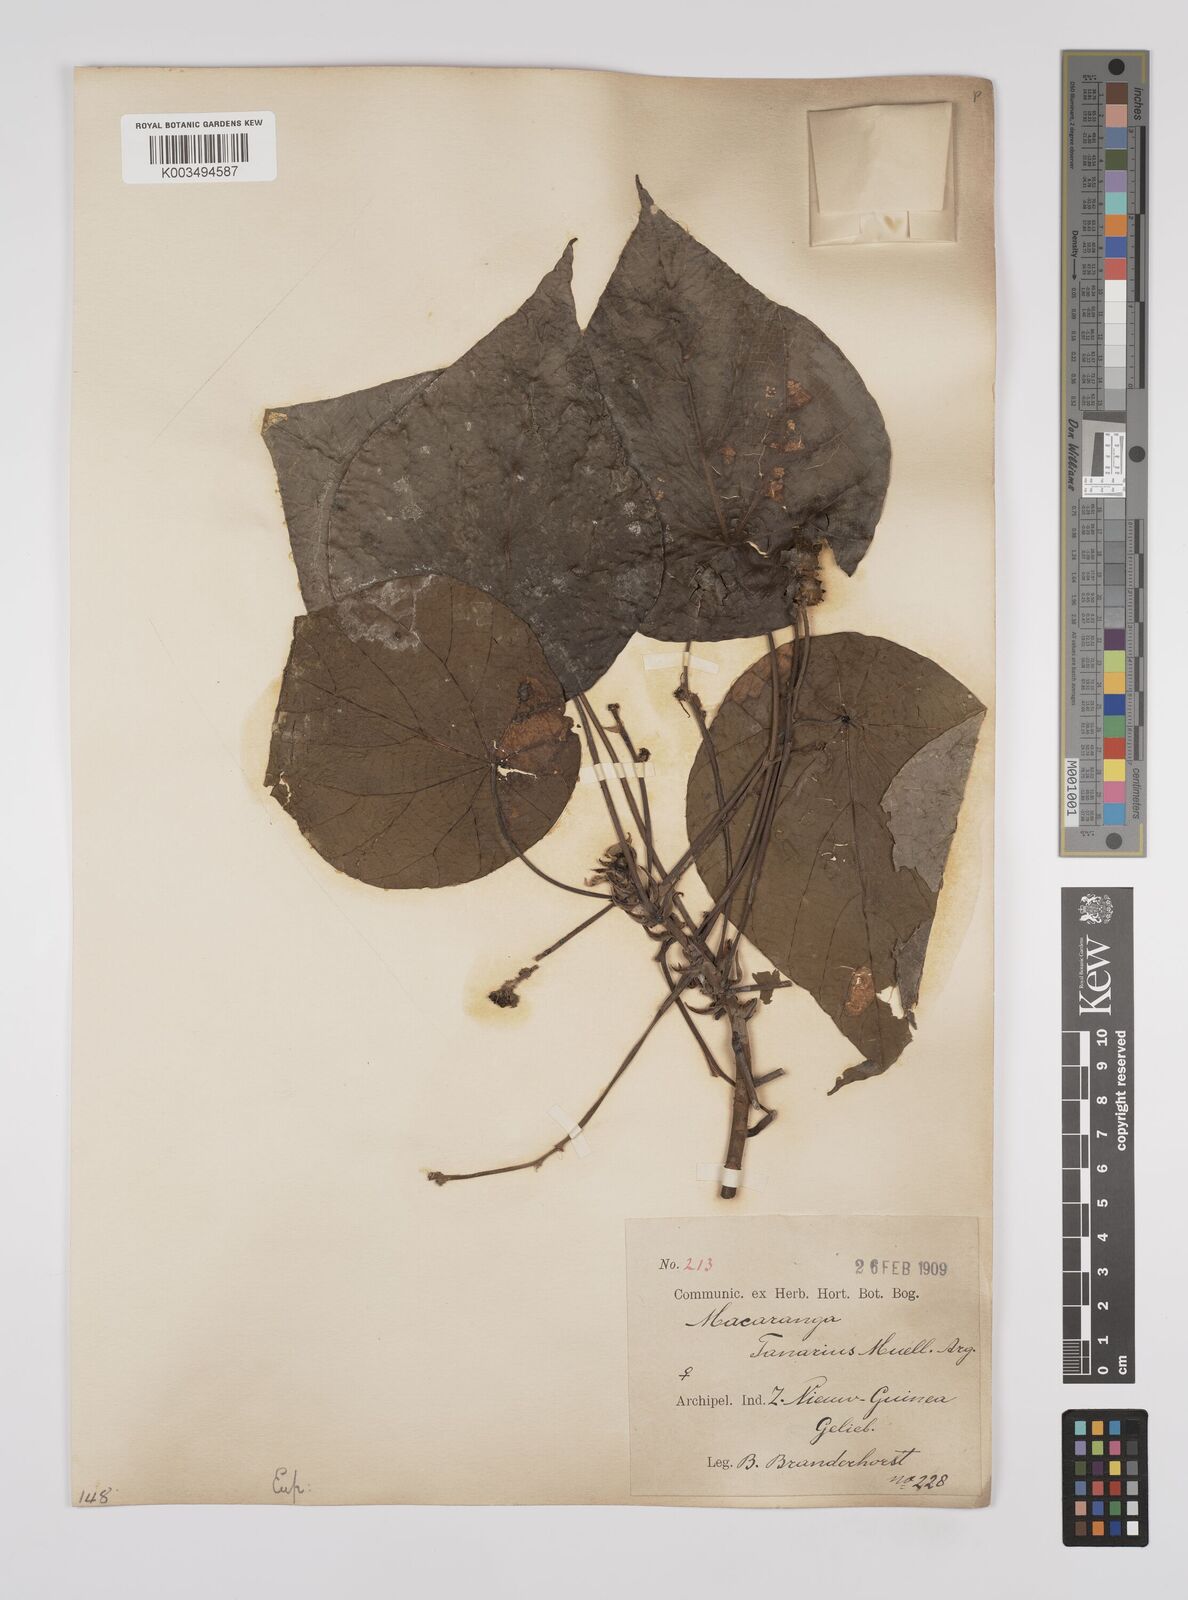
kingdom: Plantae
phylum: Tracheophyta
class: Magnoliopsida
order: Malpighiales
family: Euphorbiaceae
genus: Macaranga
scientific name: Macaranga tanarius
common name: Parasol leaf tree
